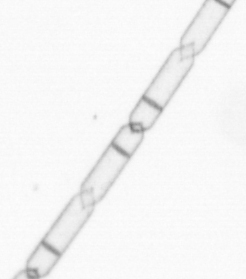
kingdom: Chromista
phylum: Ochrophyta
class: Bacillariophyceae
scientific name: Bacillariophyceae
